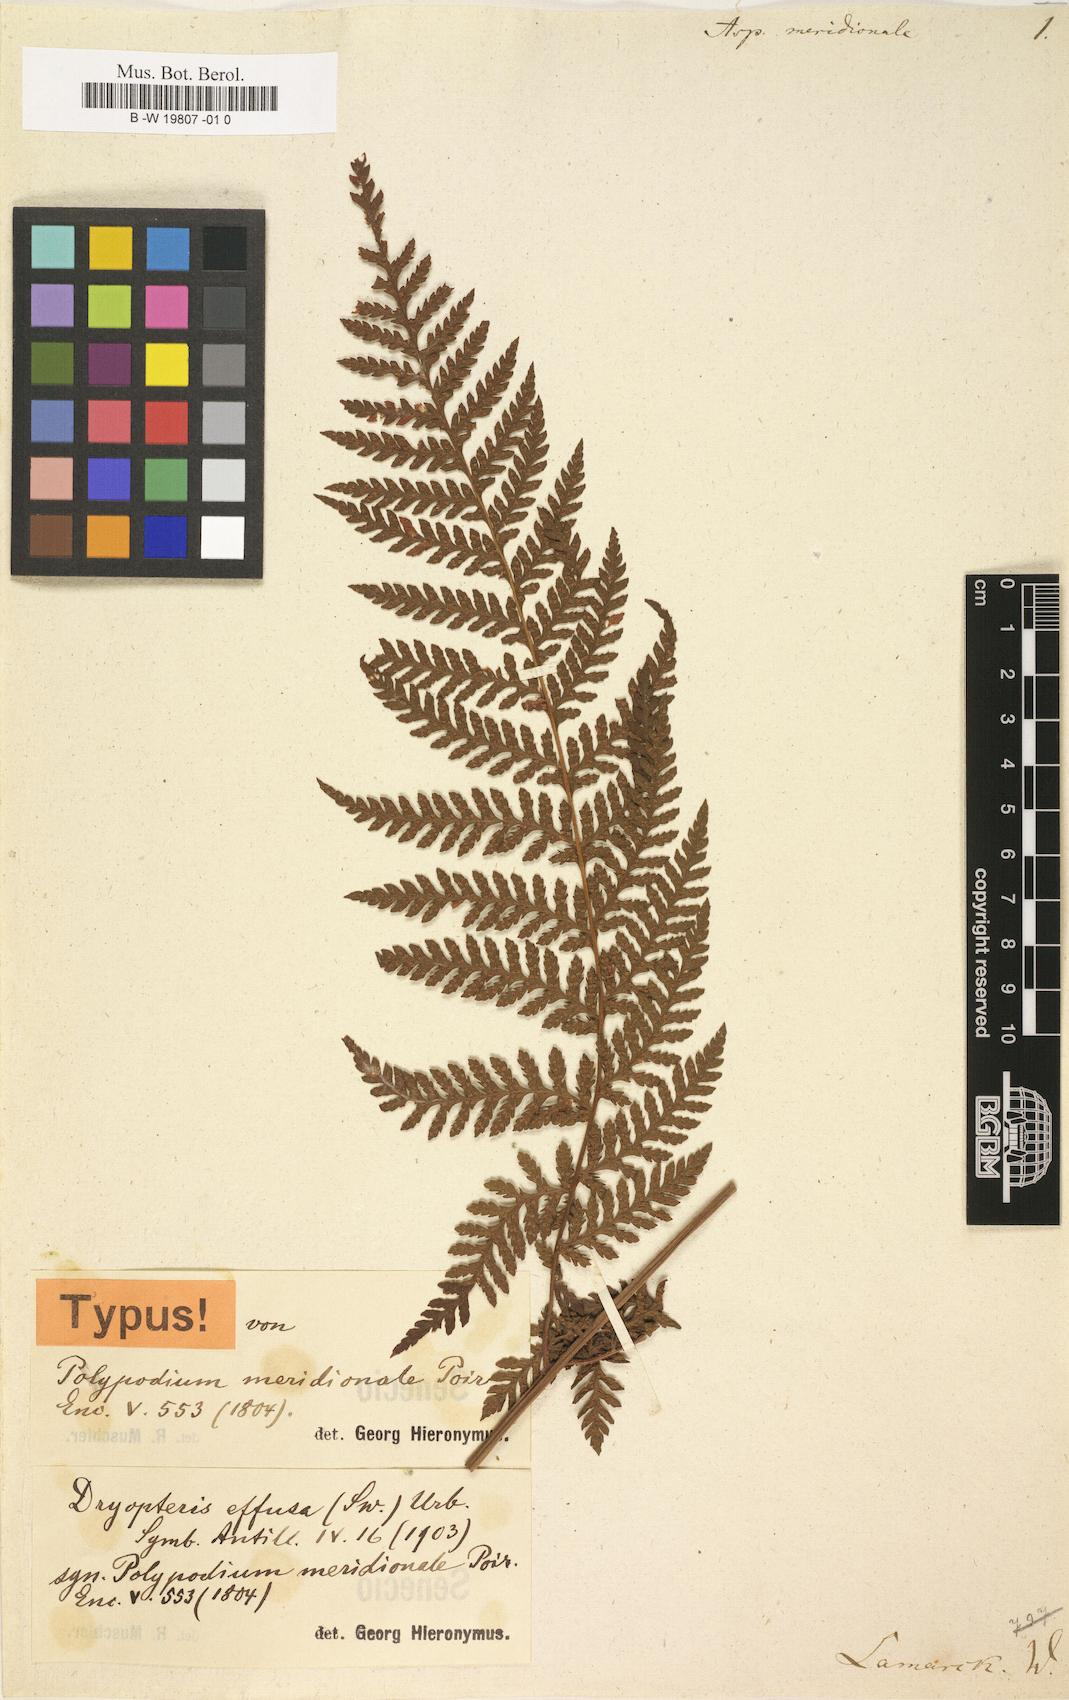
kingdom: Plantae
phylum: Tracheophyta
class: Polypodiopsida
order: Polypodiales
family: Tectariaceae
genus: Tectaria
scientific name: Tectaria Aspidium spec
